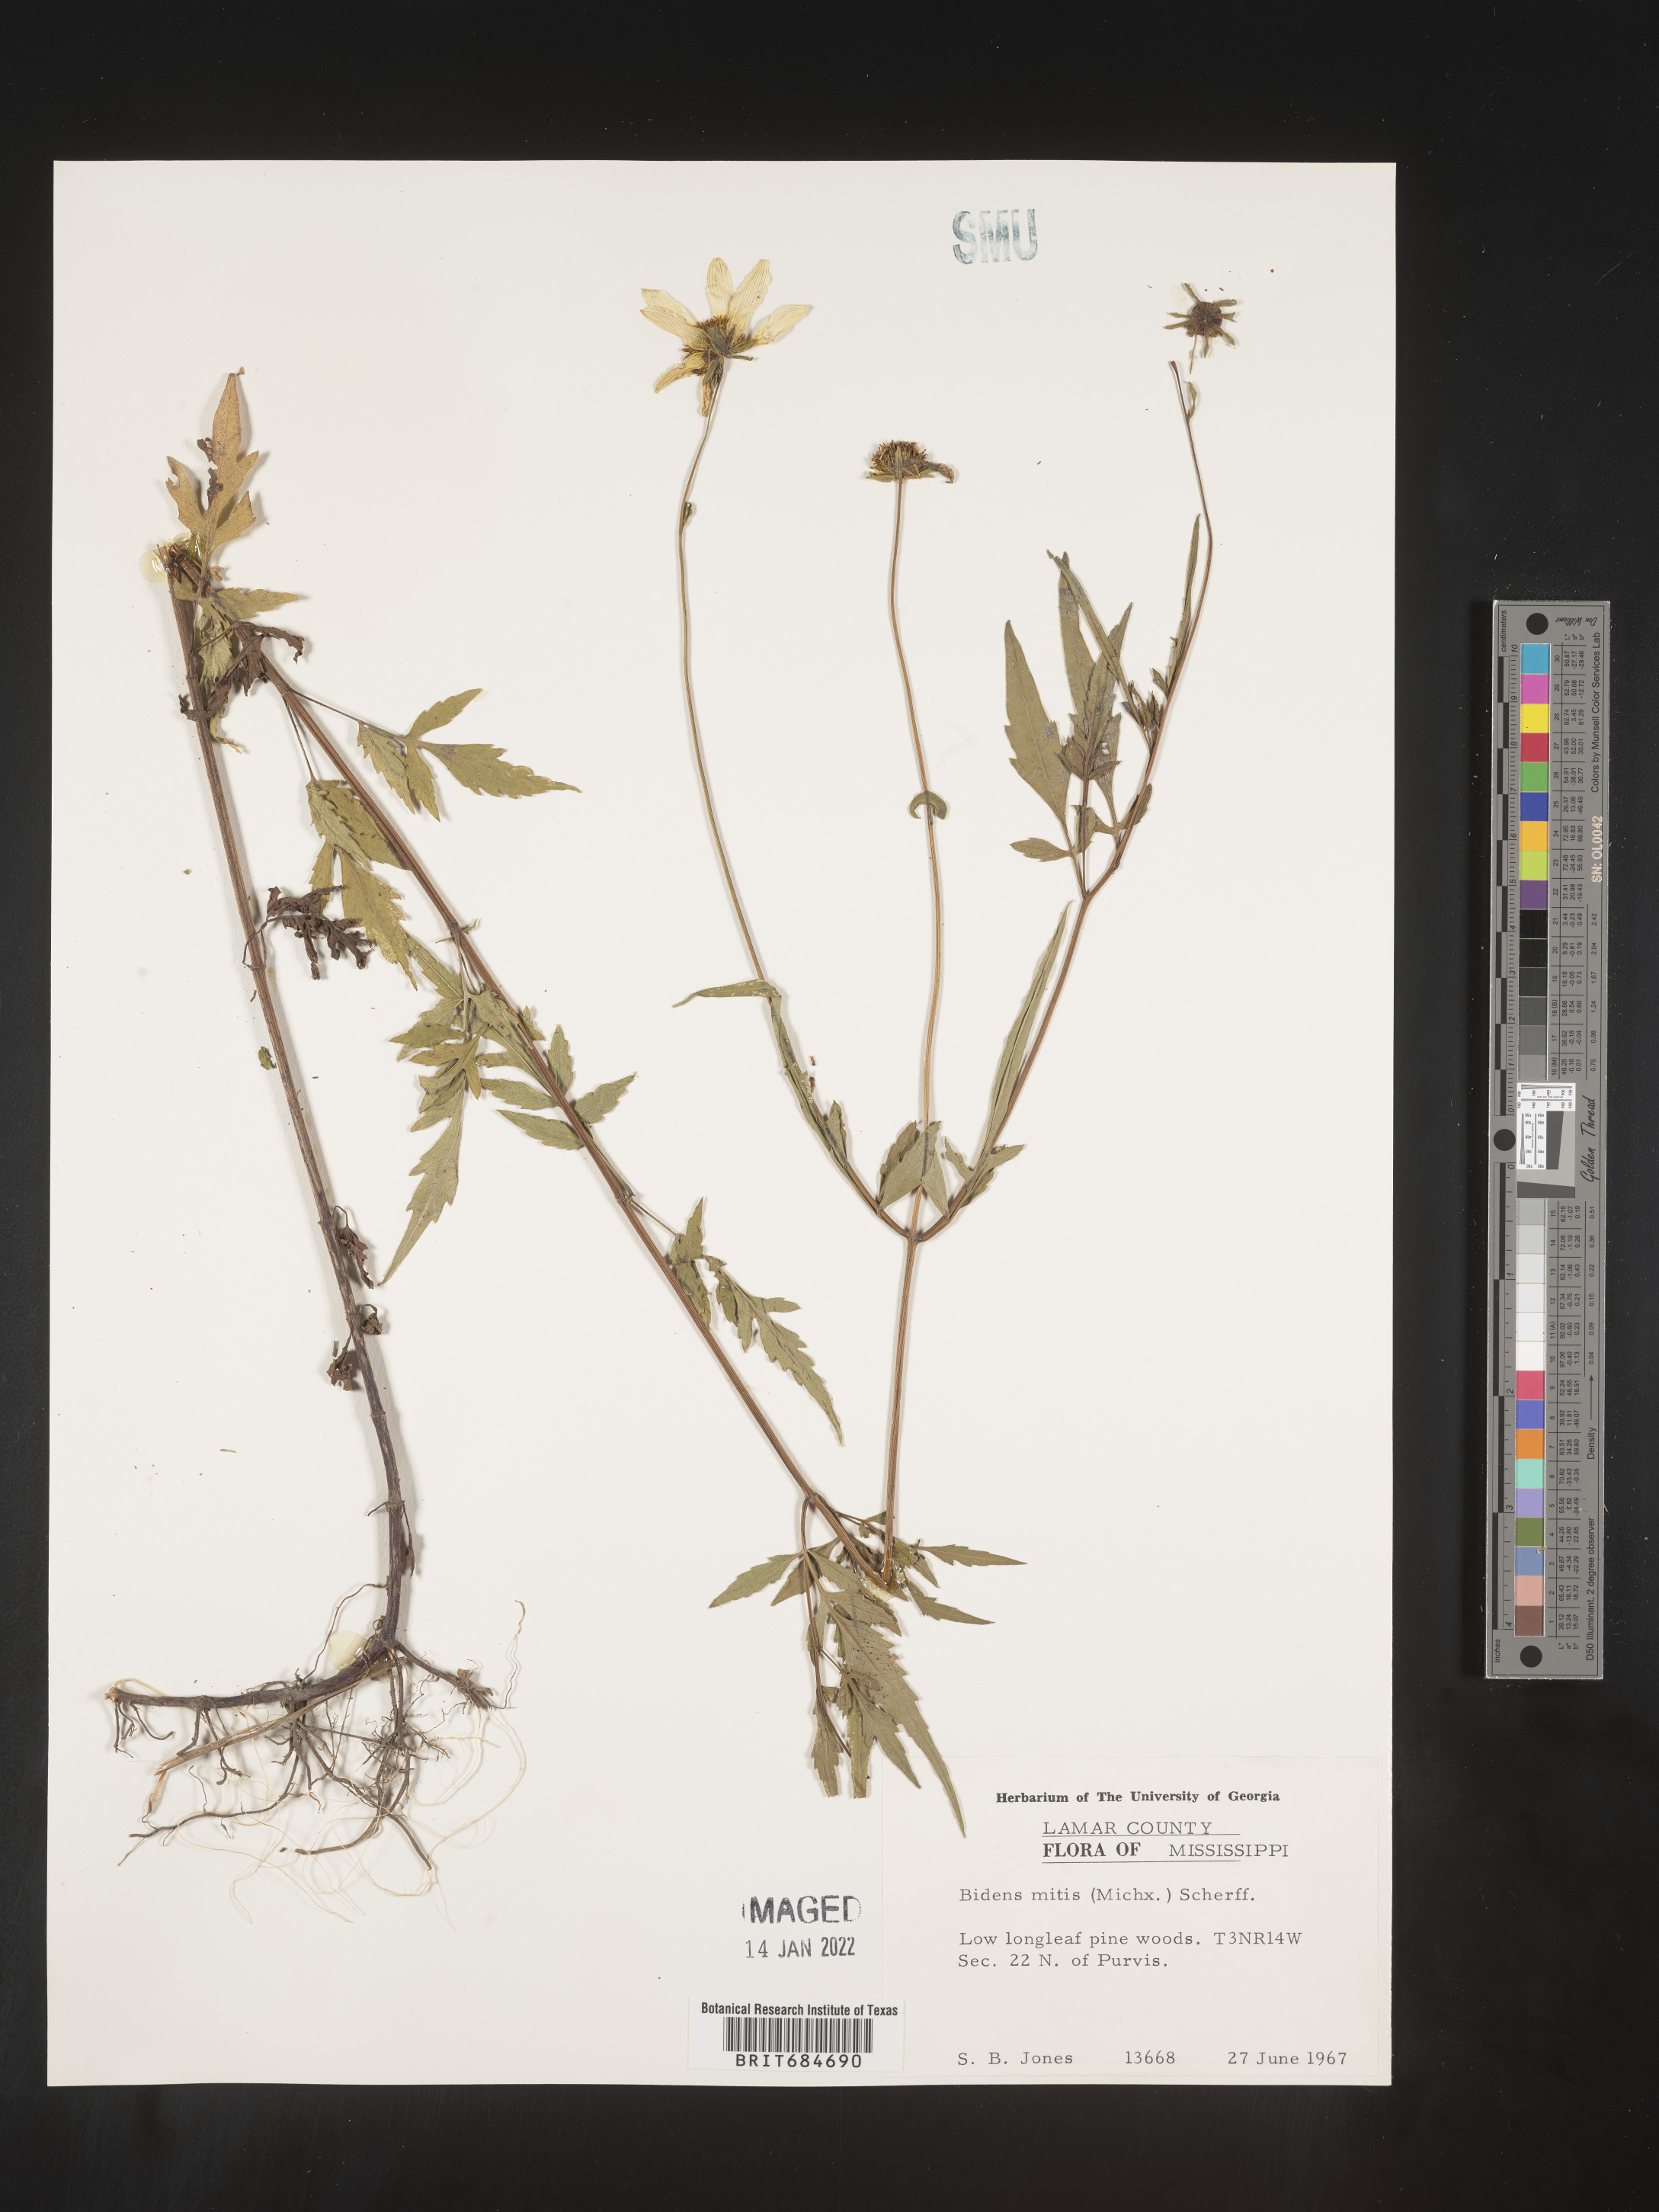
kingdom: Plantae
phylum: Tracheophyta
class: Magnoliopsida
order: Asterales
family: Asteraceae
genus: Bidens
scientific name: Bidens mitis
